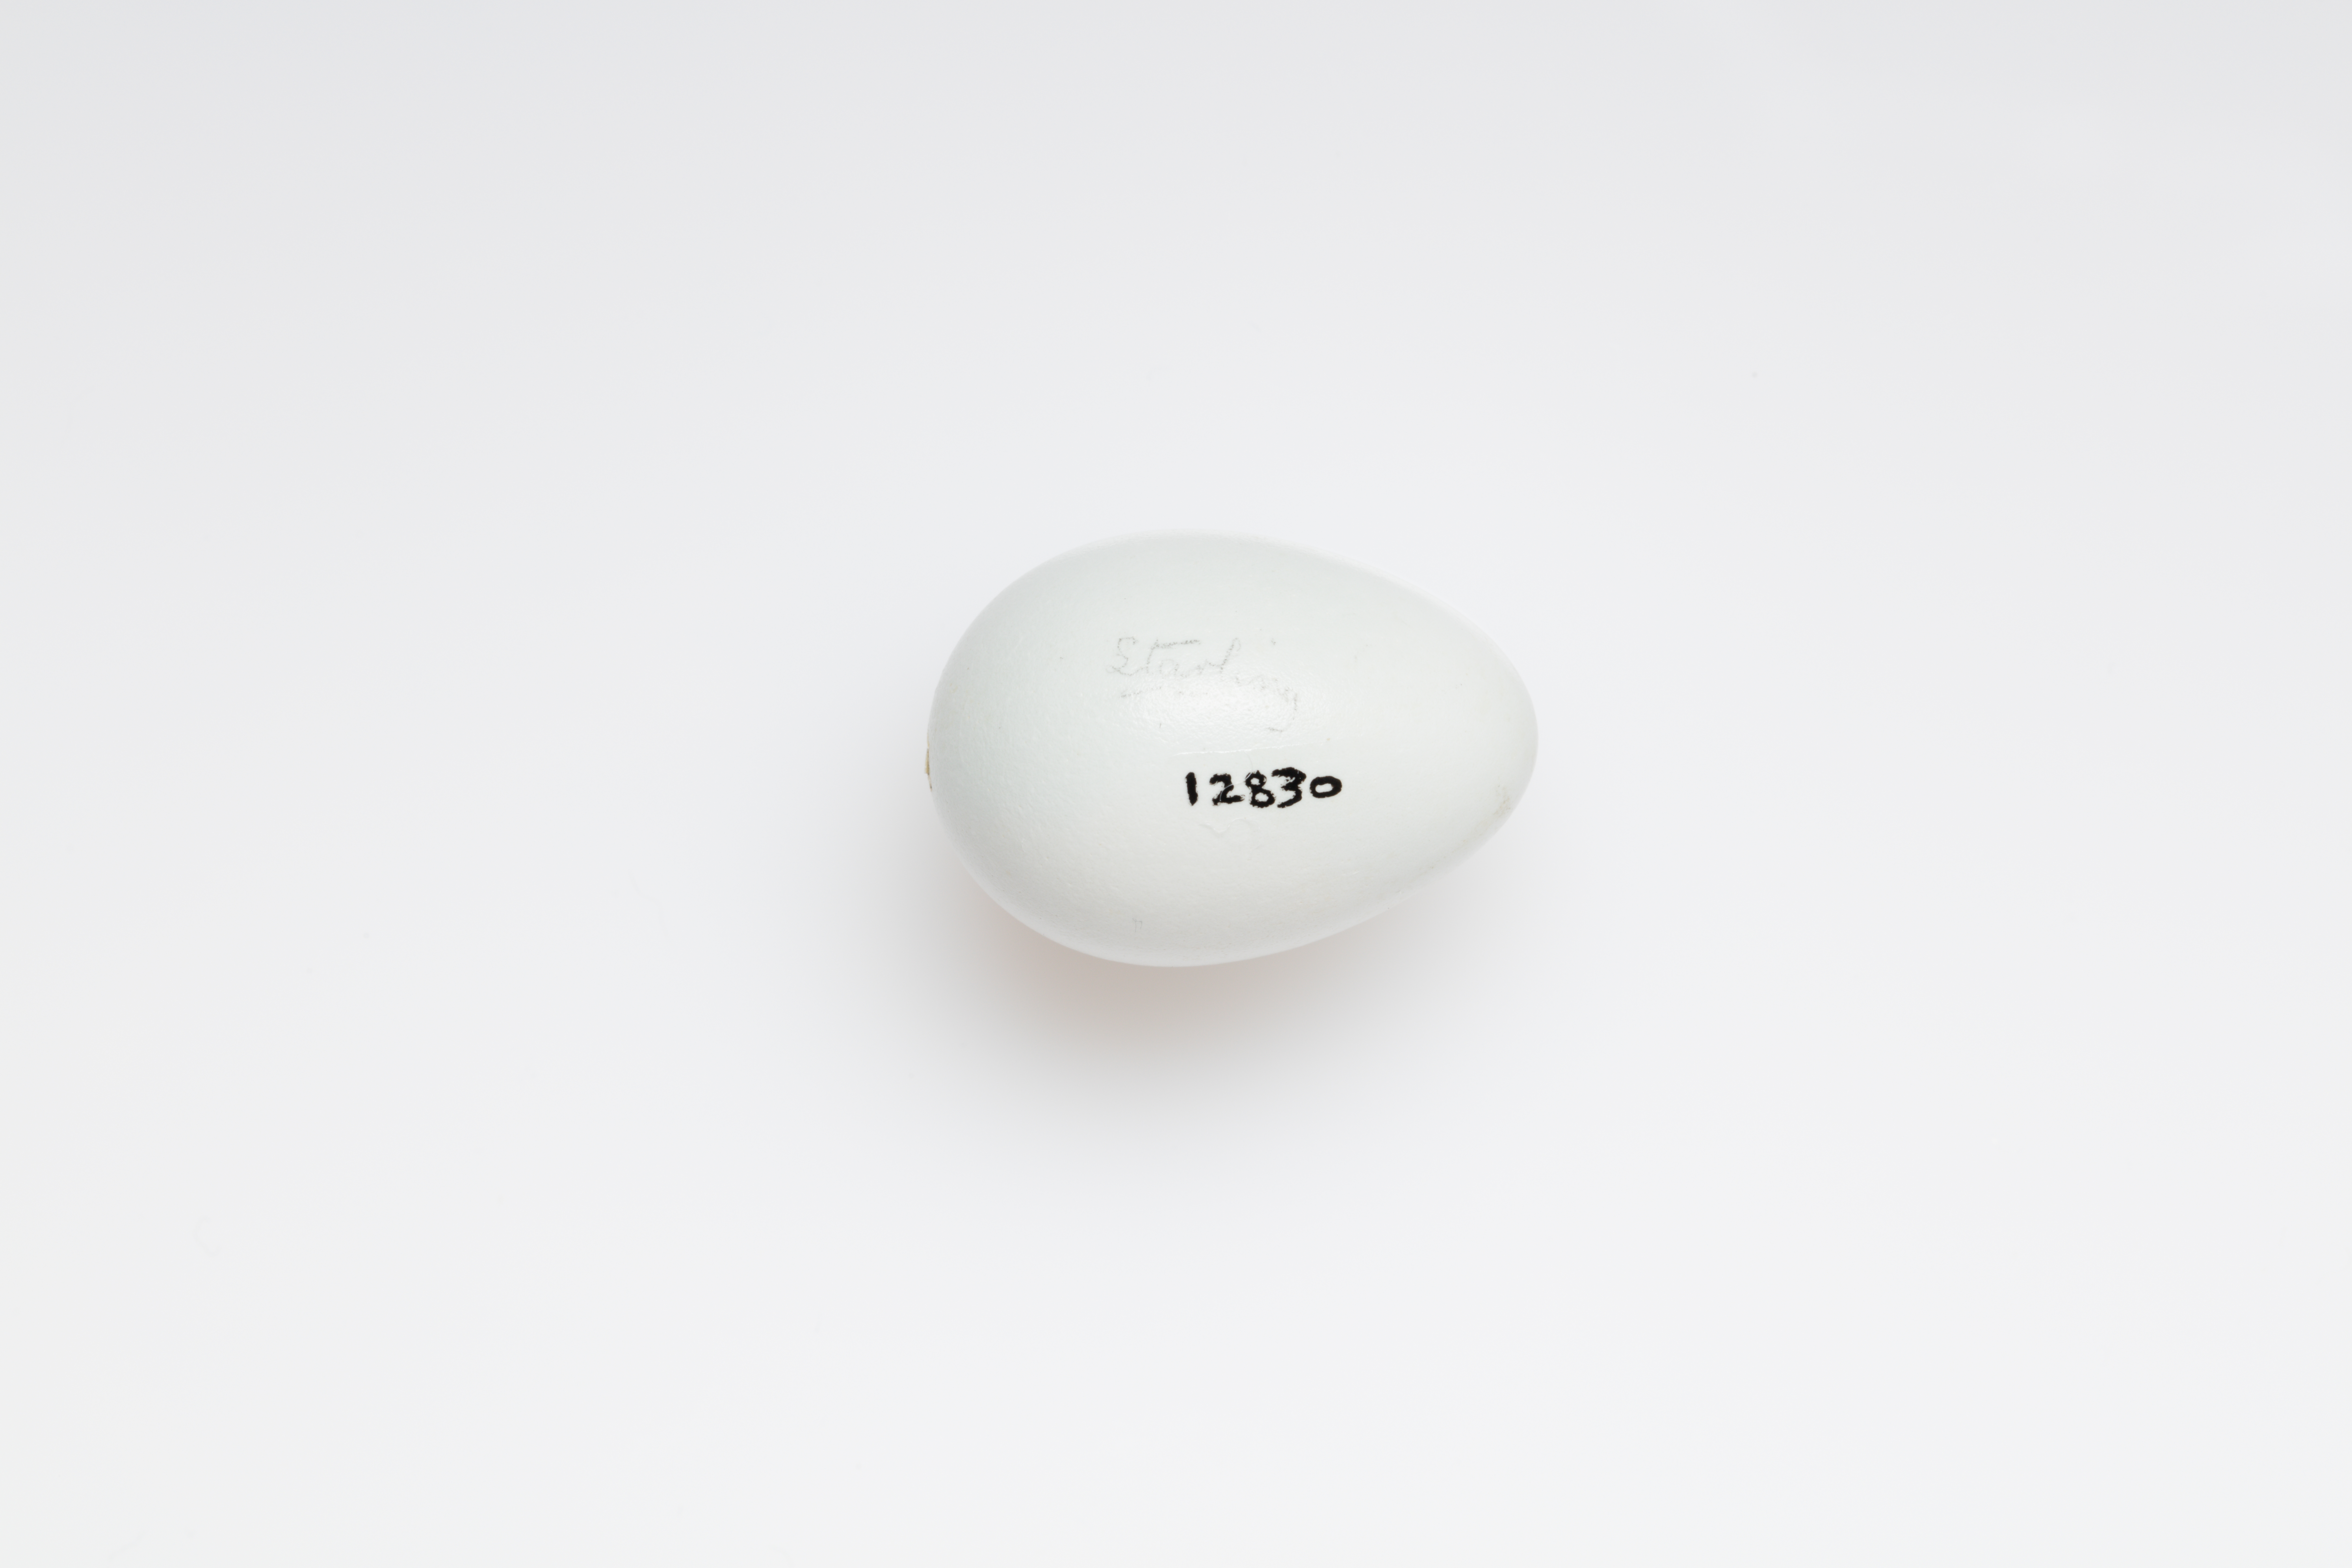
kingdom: Animalia
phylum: Chordata
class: Aves
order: Passeriformes
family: Sturnidae
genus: Sturnus
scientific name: Sturnus vulgaris
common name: Common starling
